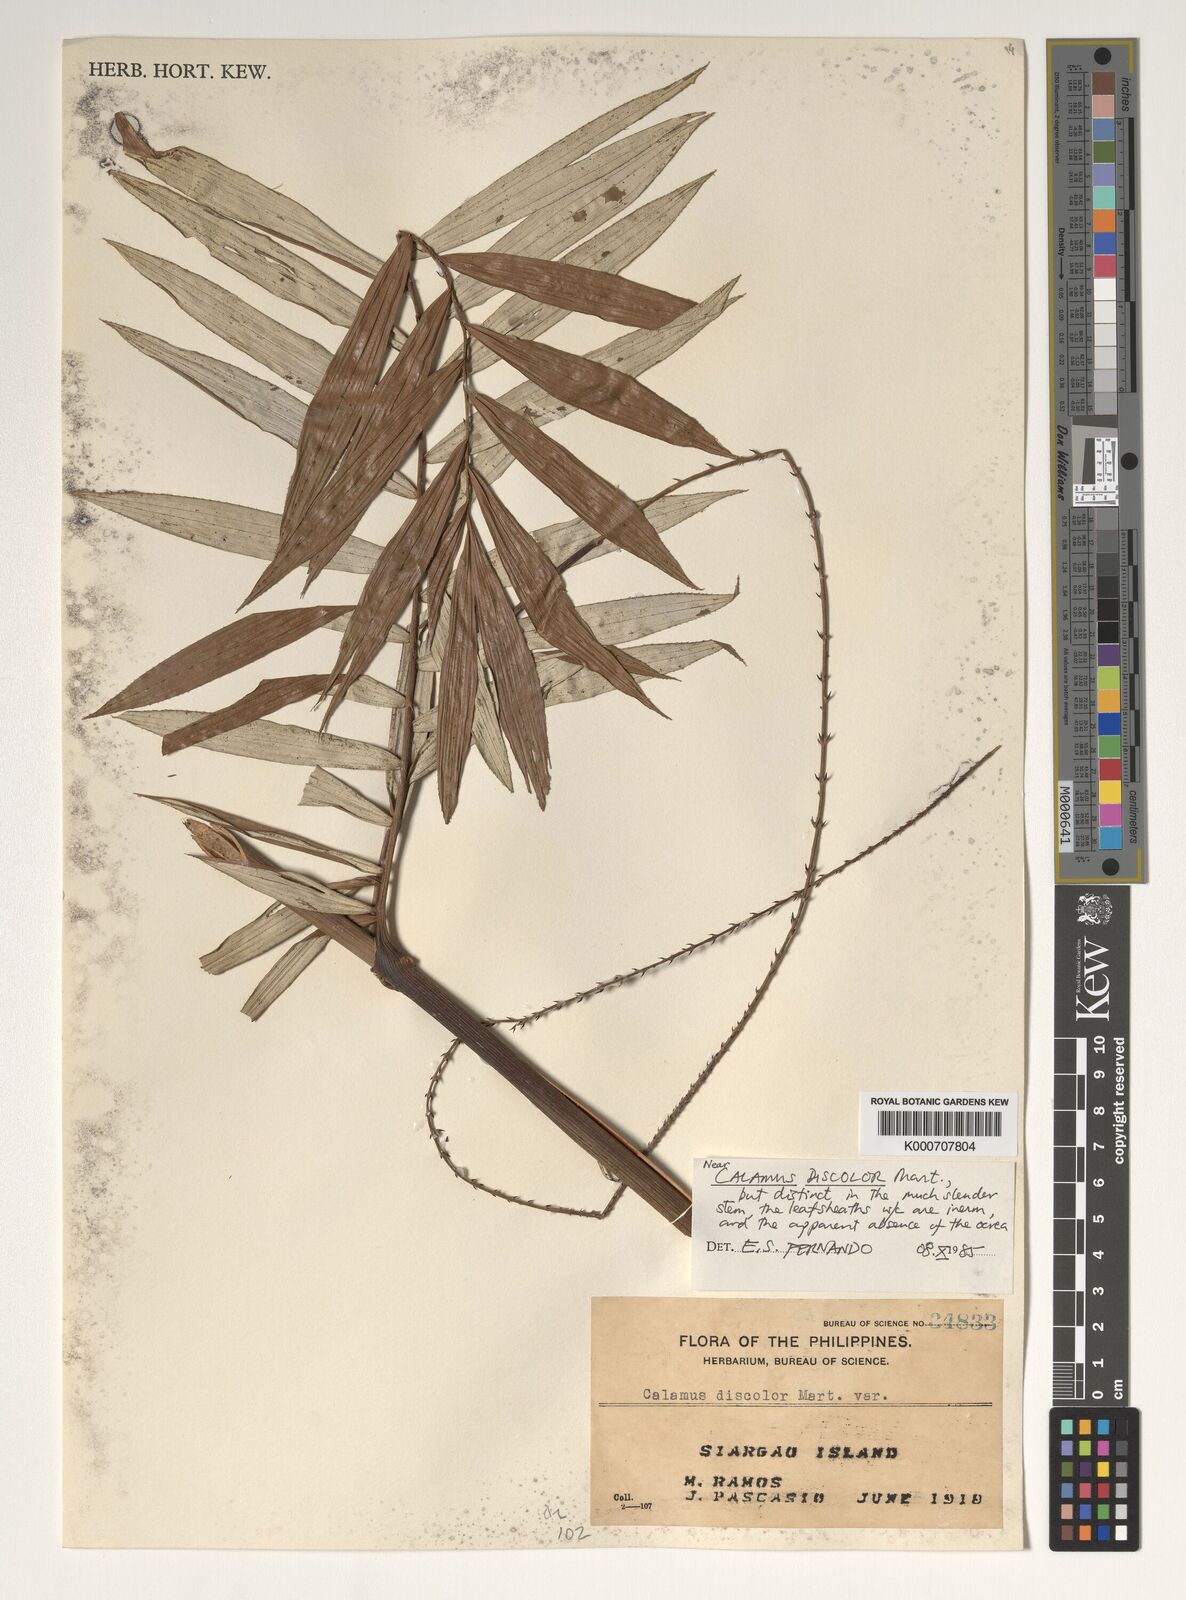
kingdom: Plantae
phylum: Tracheophyta
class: Liliopsida
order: Arecales
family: Arecaceae
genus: Calamus
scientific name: Calamus discolor
